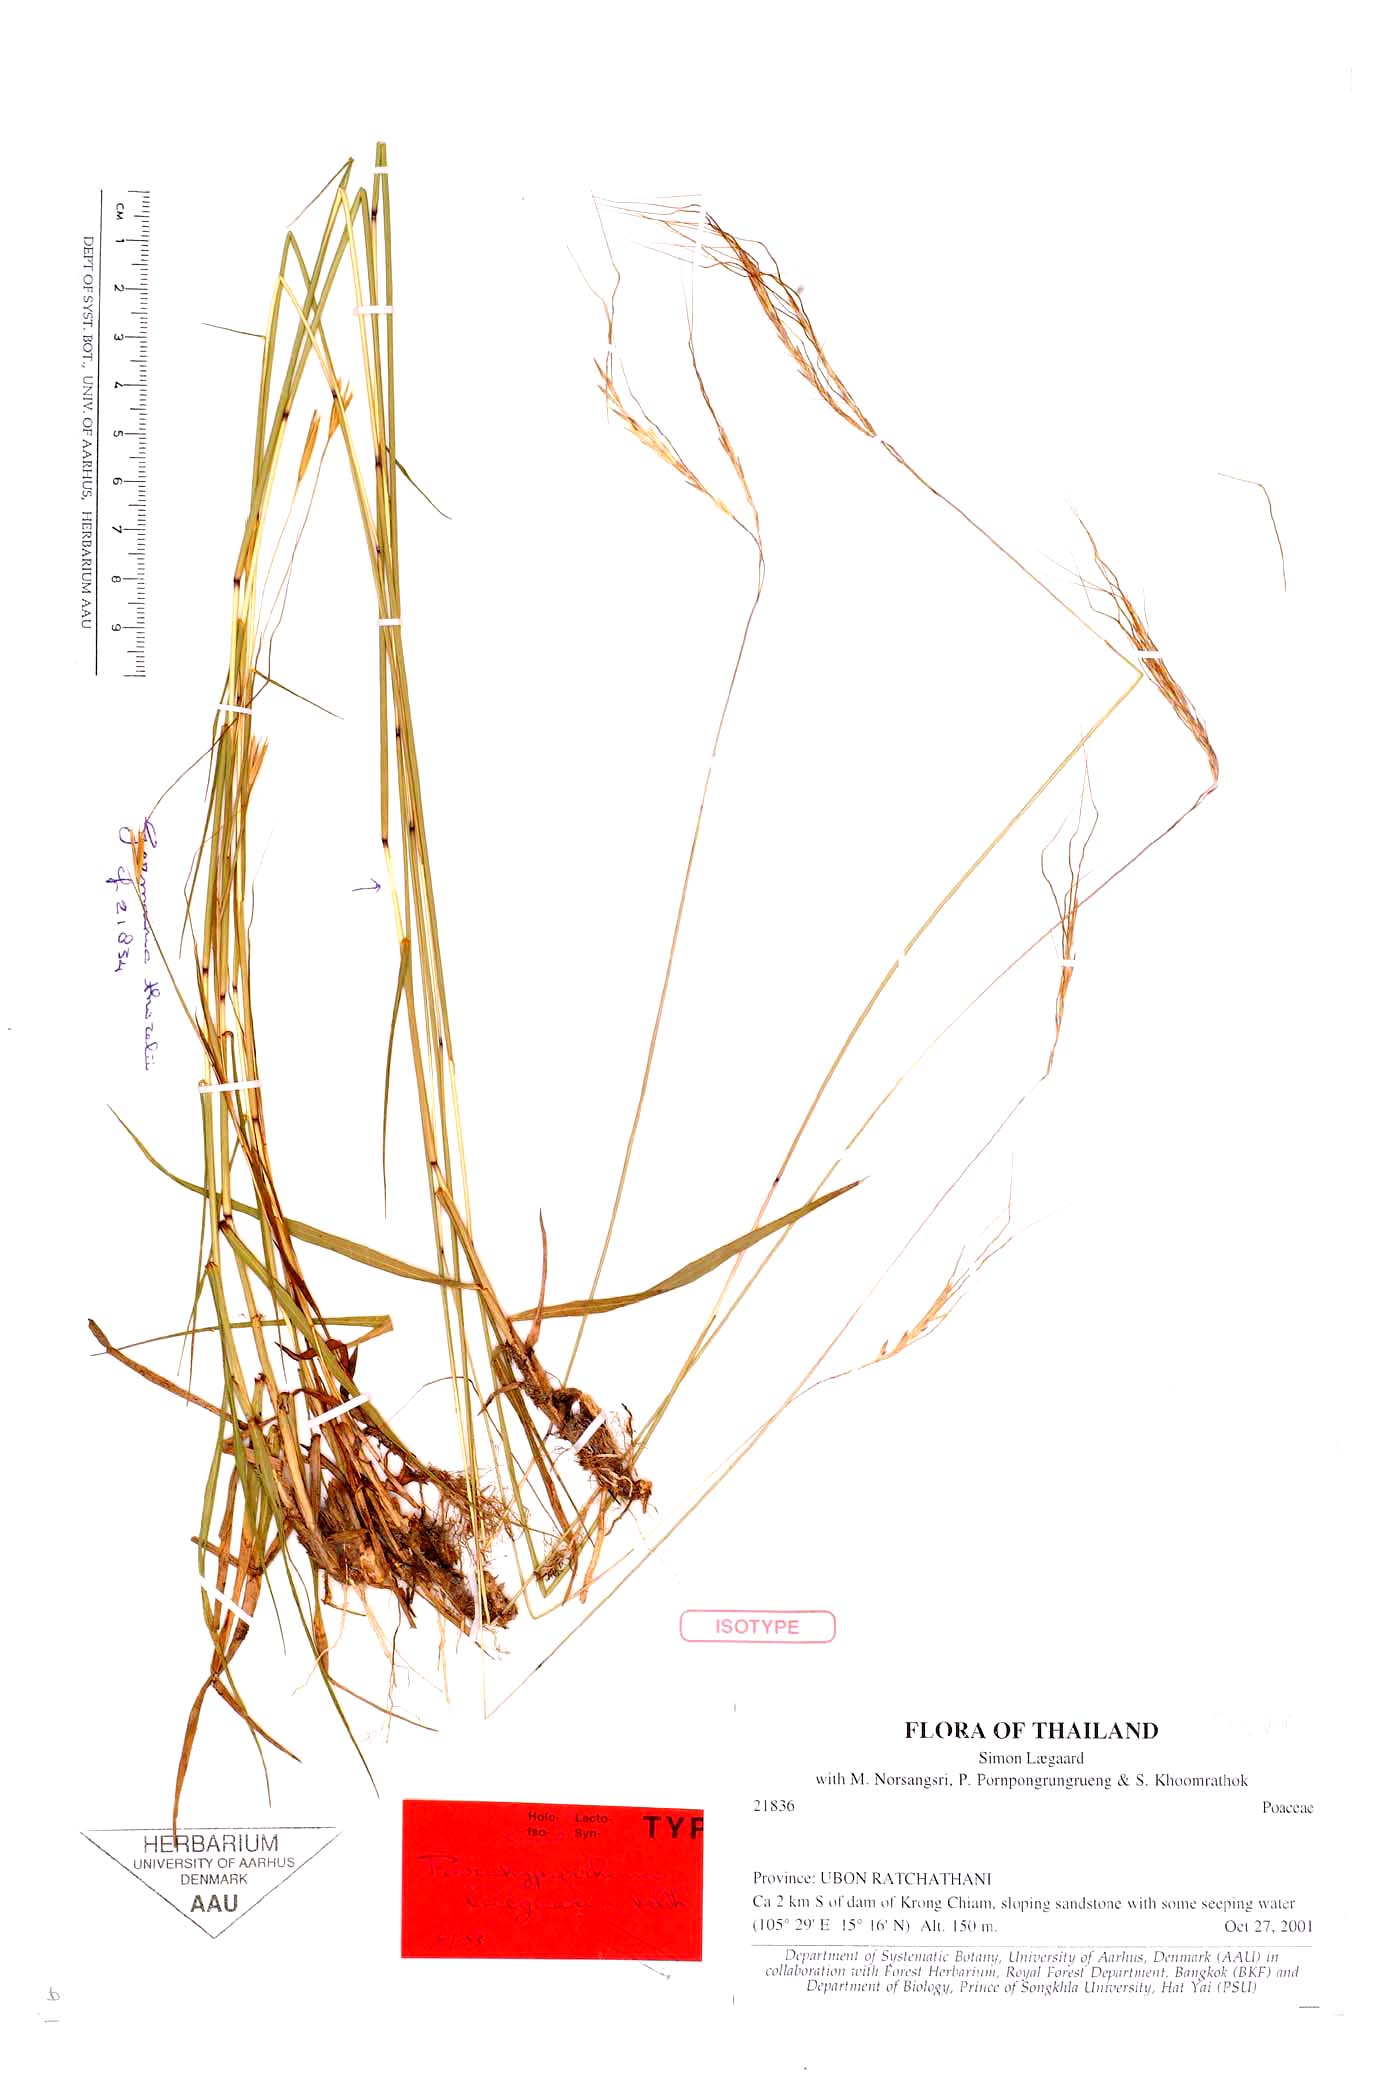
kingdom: Plantae
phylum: Tracheophyta
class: Liliopsida
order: Poales
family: Poaceae
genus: Parahyparrhenia
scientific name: Parahyparrhenia laegaardii
